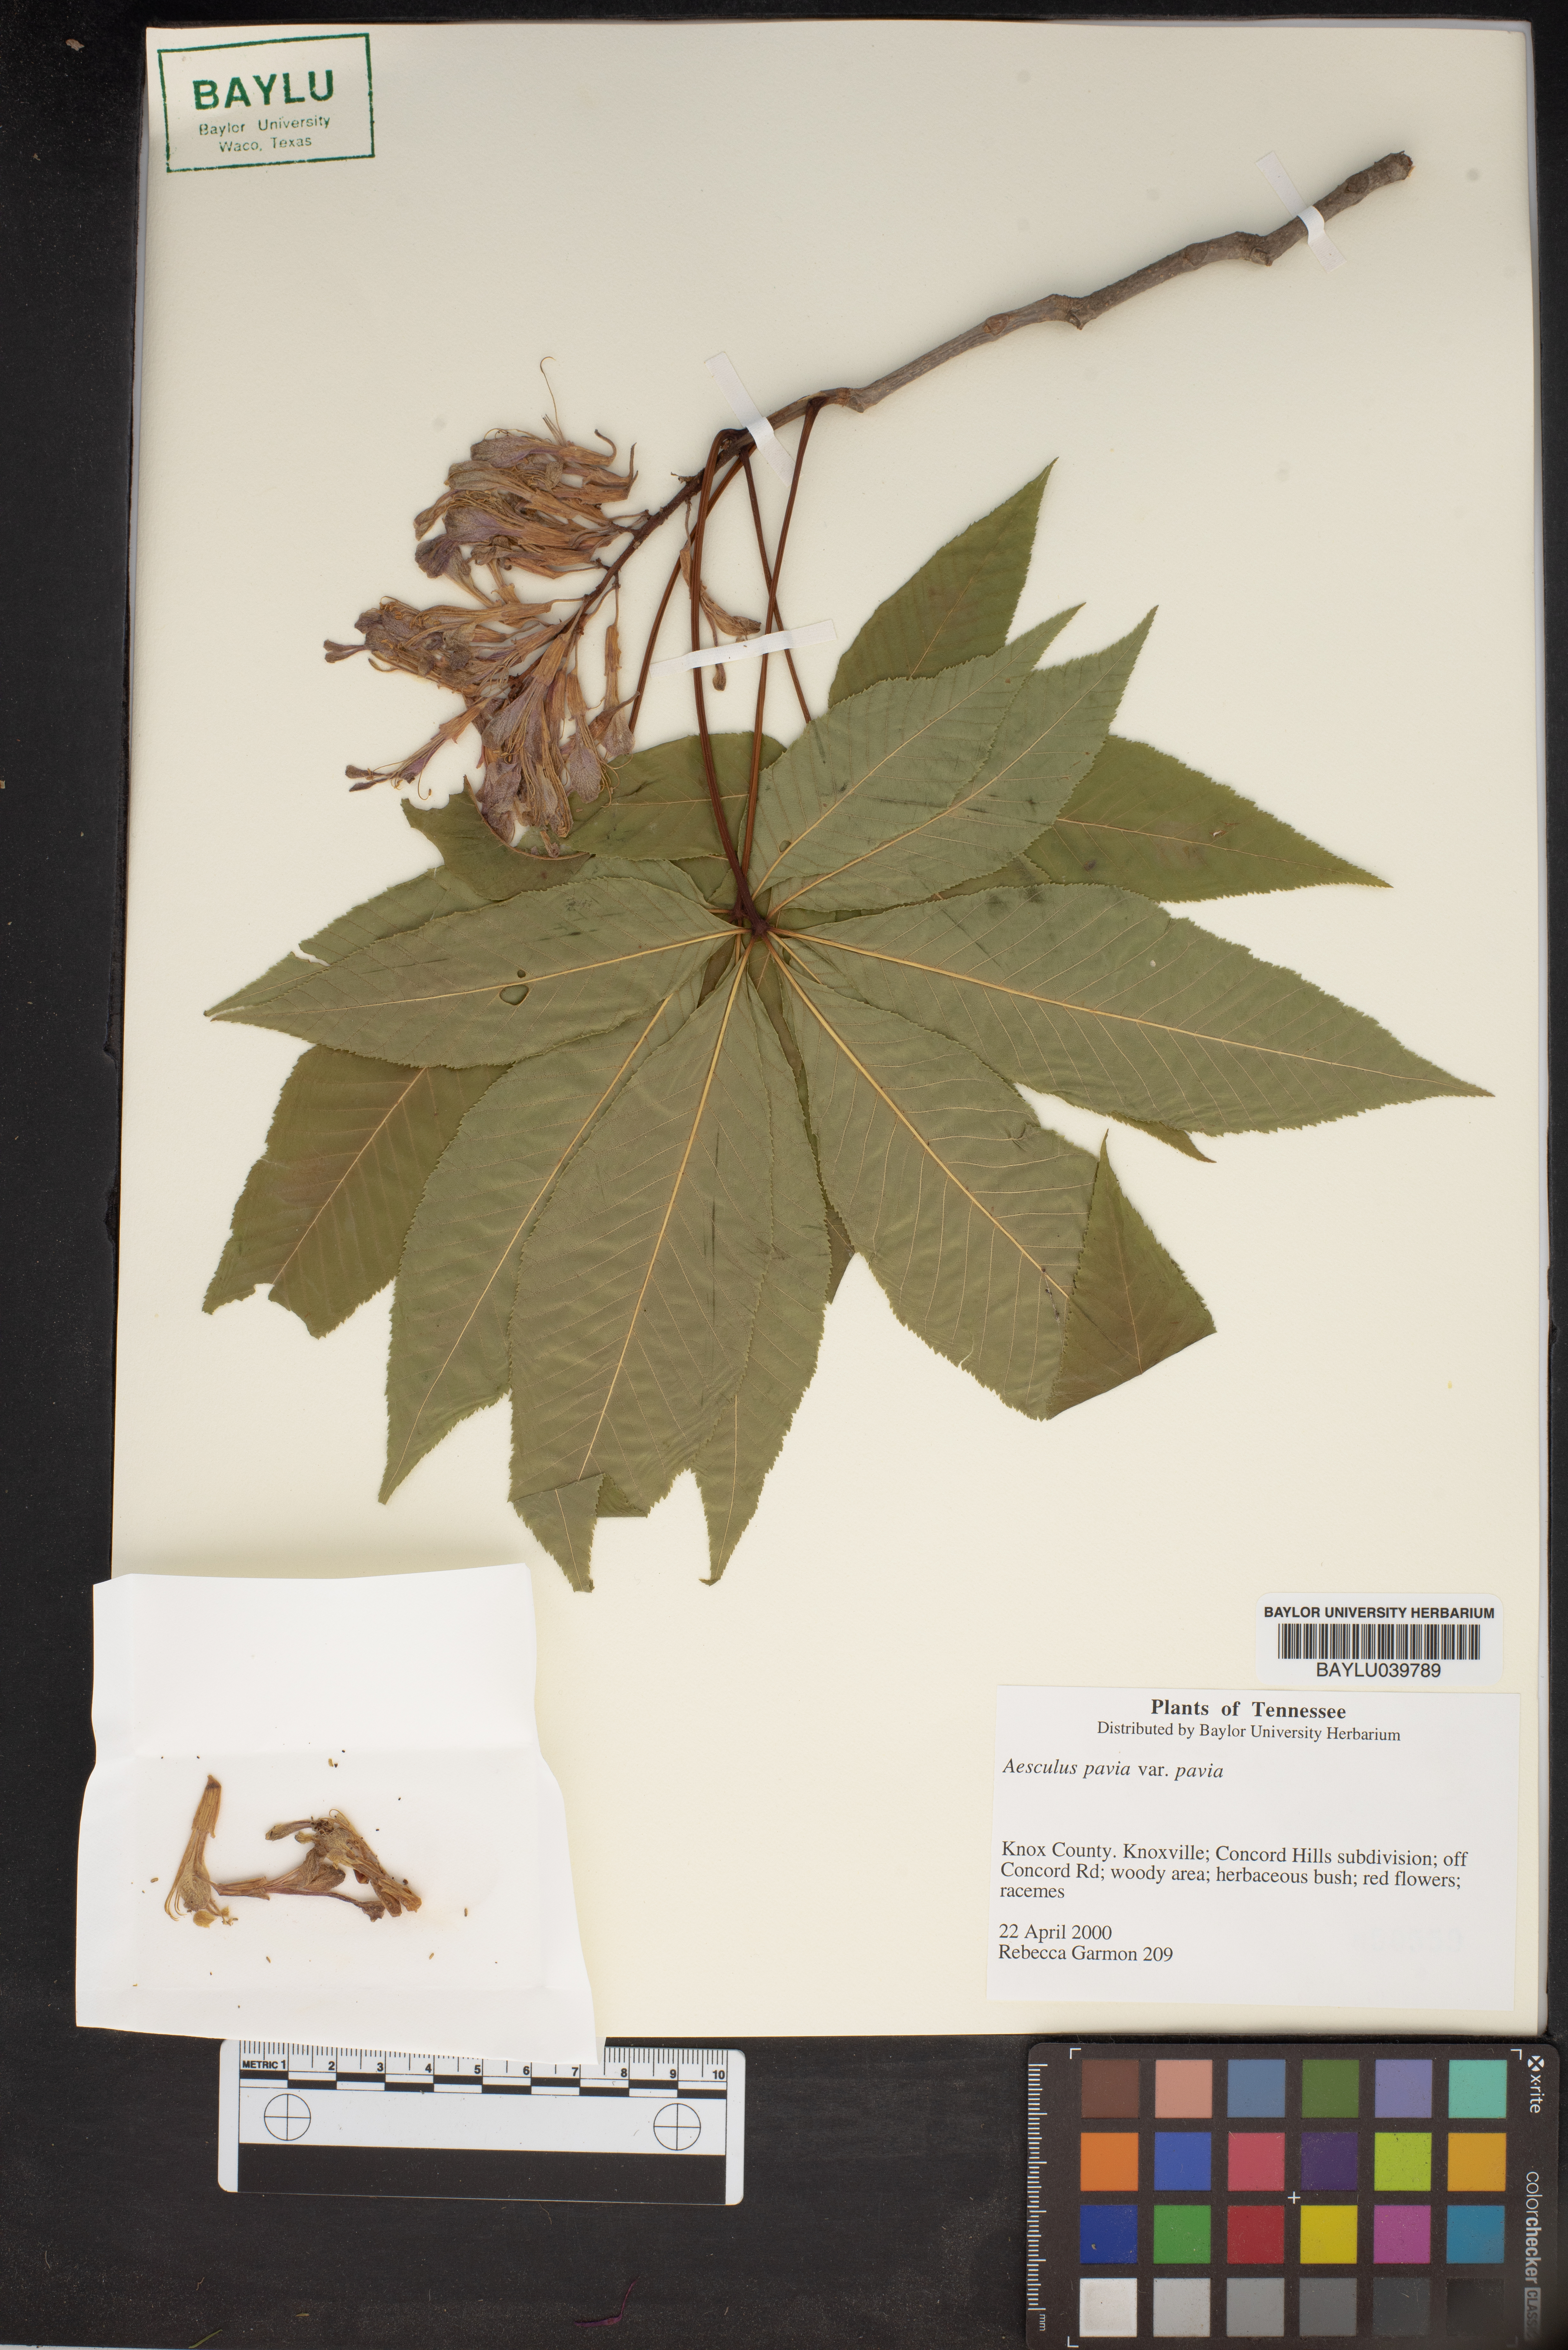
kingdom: Plantae
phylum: Tracheophyta
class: Magnoliopsida
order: Sapindales
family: Sapindaceae
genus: Aesculus
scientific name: Aesculus pavia
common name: Red buckeye
